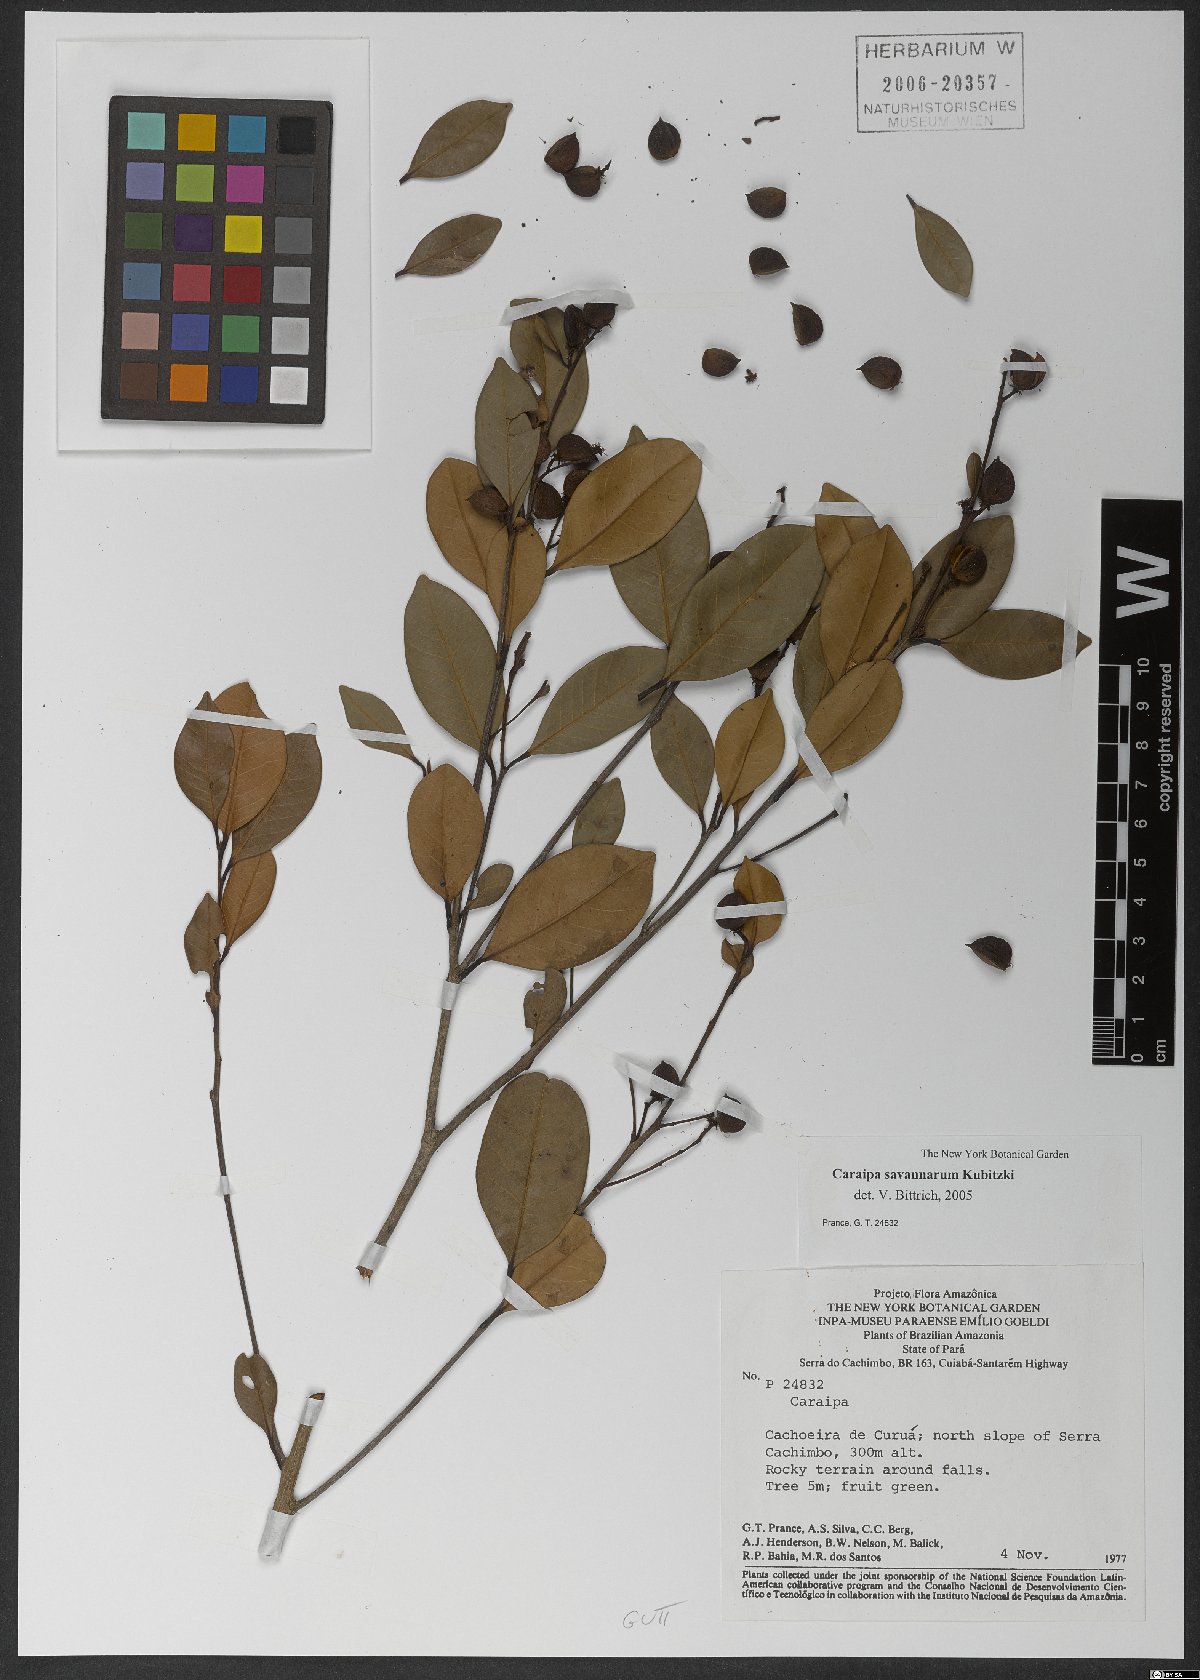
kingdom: Plantae
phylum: Tracheophyta
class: Magnoliopsida
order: Malpighiales
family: Calophyllaceae
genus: Caraipa
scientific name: Caraipa savannarum
